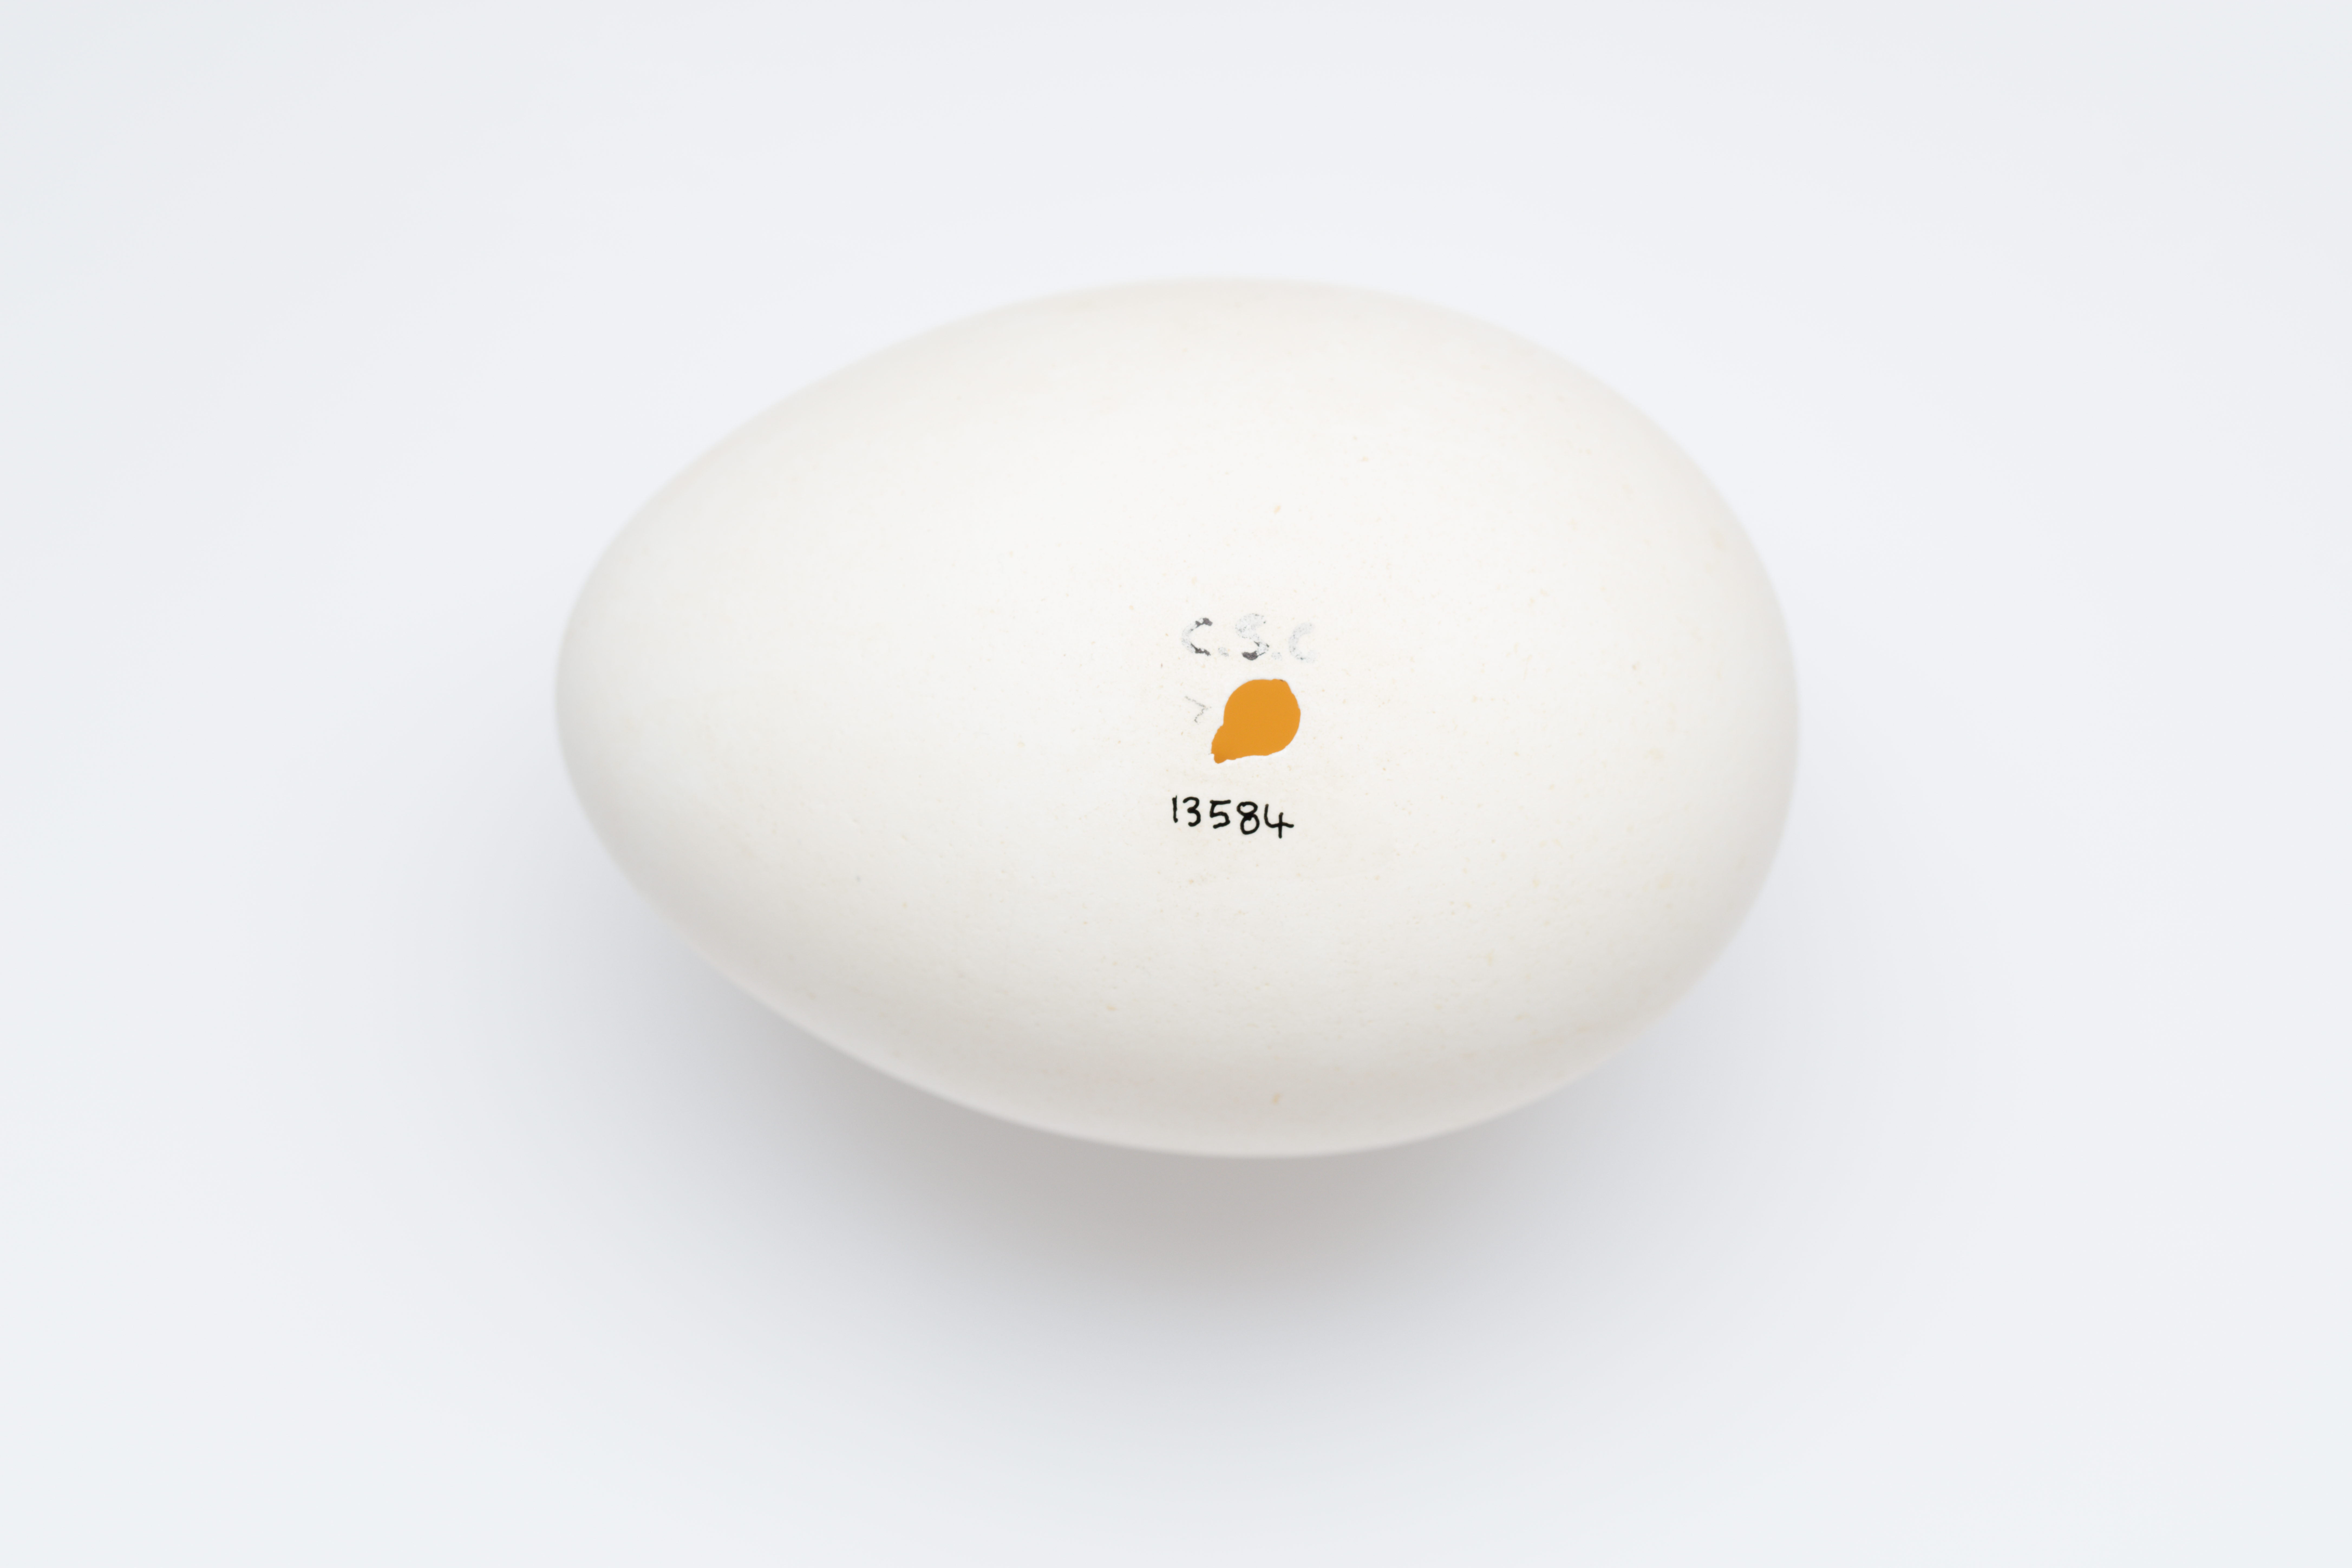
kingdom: Animalia
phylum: Chordata
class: Aves
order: Procellariiformes
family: Procellariidae
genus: Procellaria
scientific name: Procellaria westlandica
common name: Westland petrel
